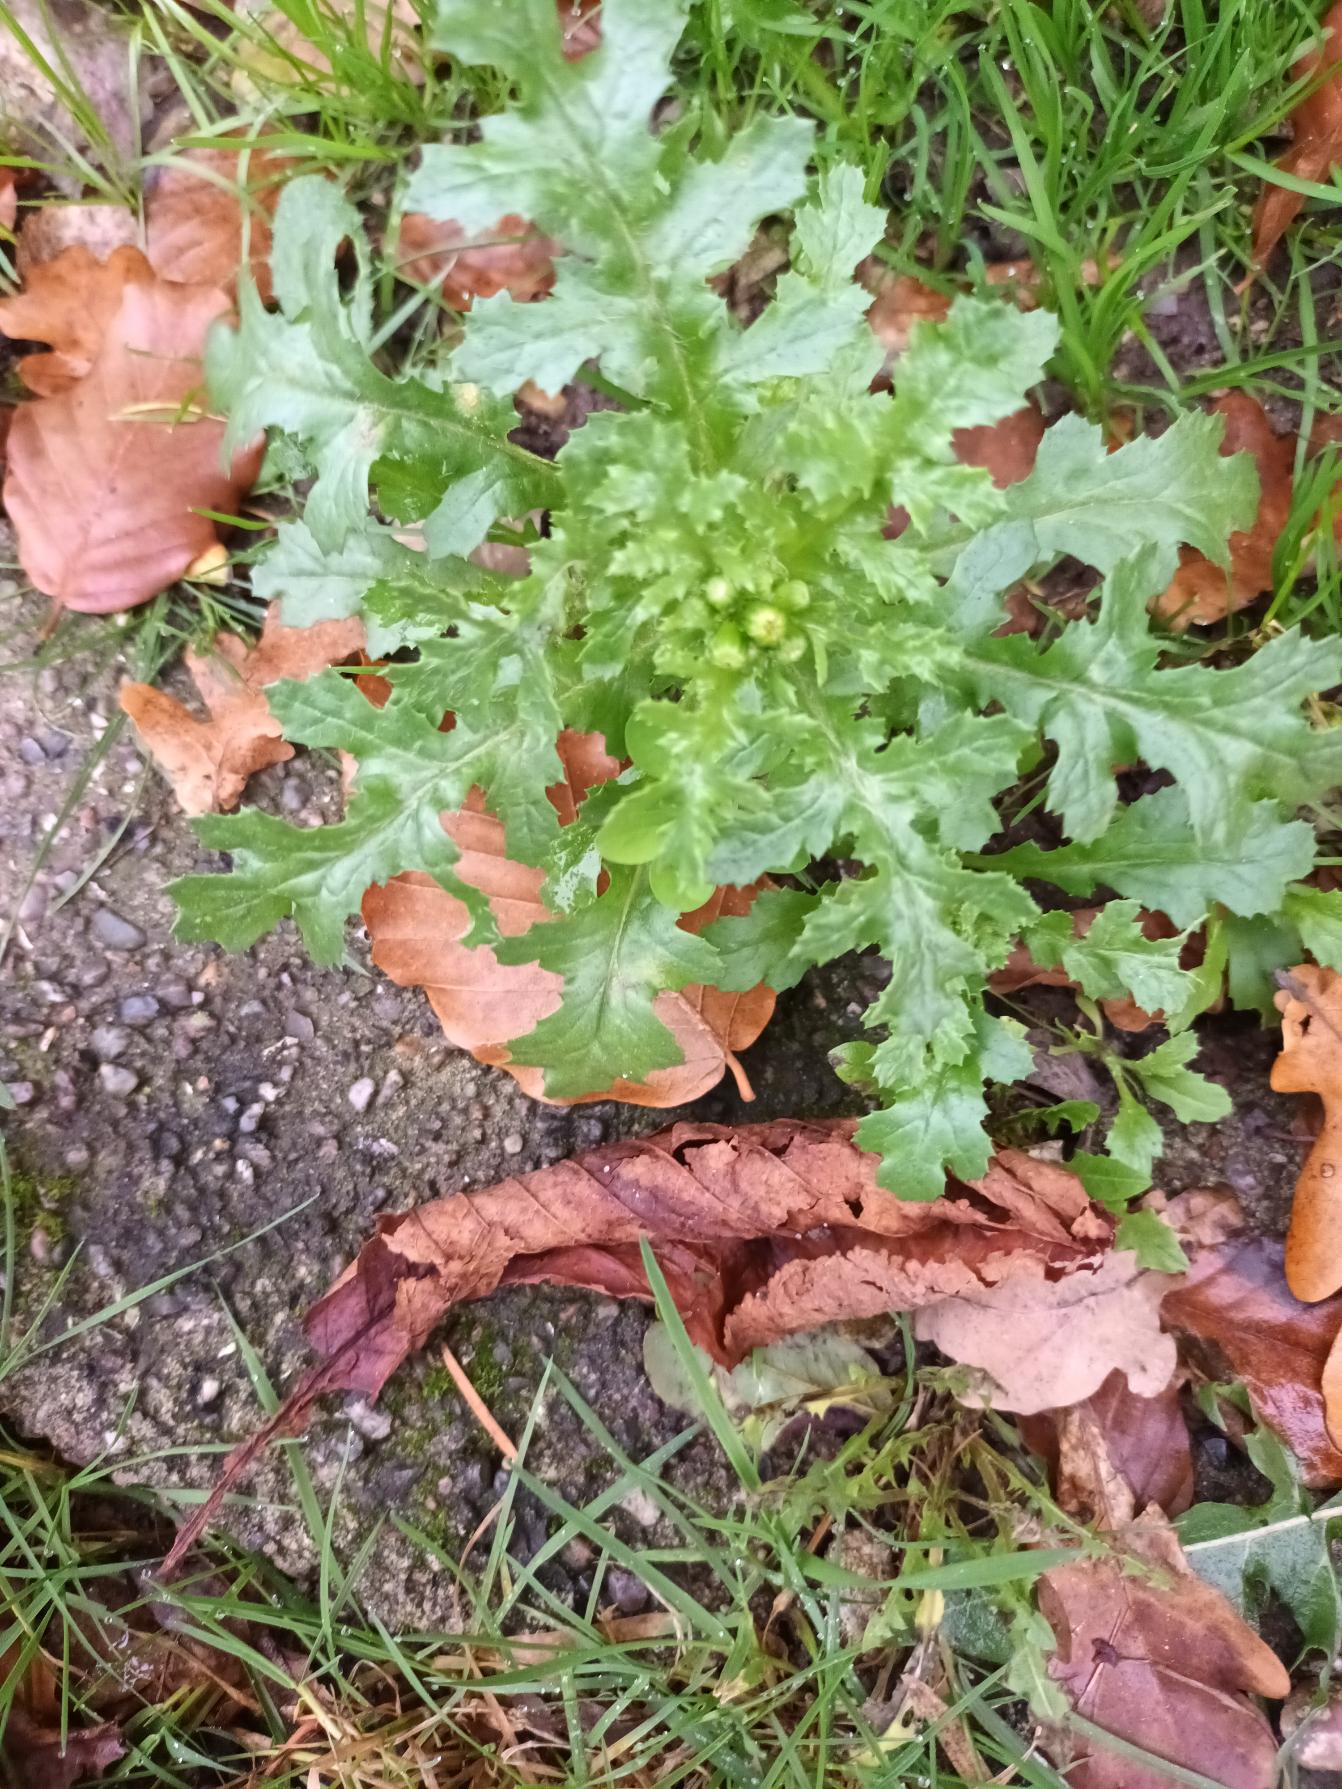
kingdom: Plantae
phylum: Tracheophyta
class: Magnoliopsida
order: Asterales
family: Asteraceae
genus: Senecio
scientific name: Senecio vulgaris
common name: Almindelig brandbæger
